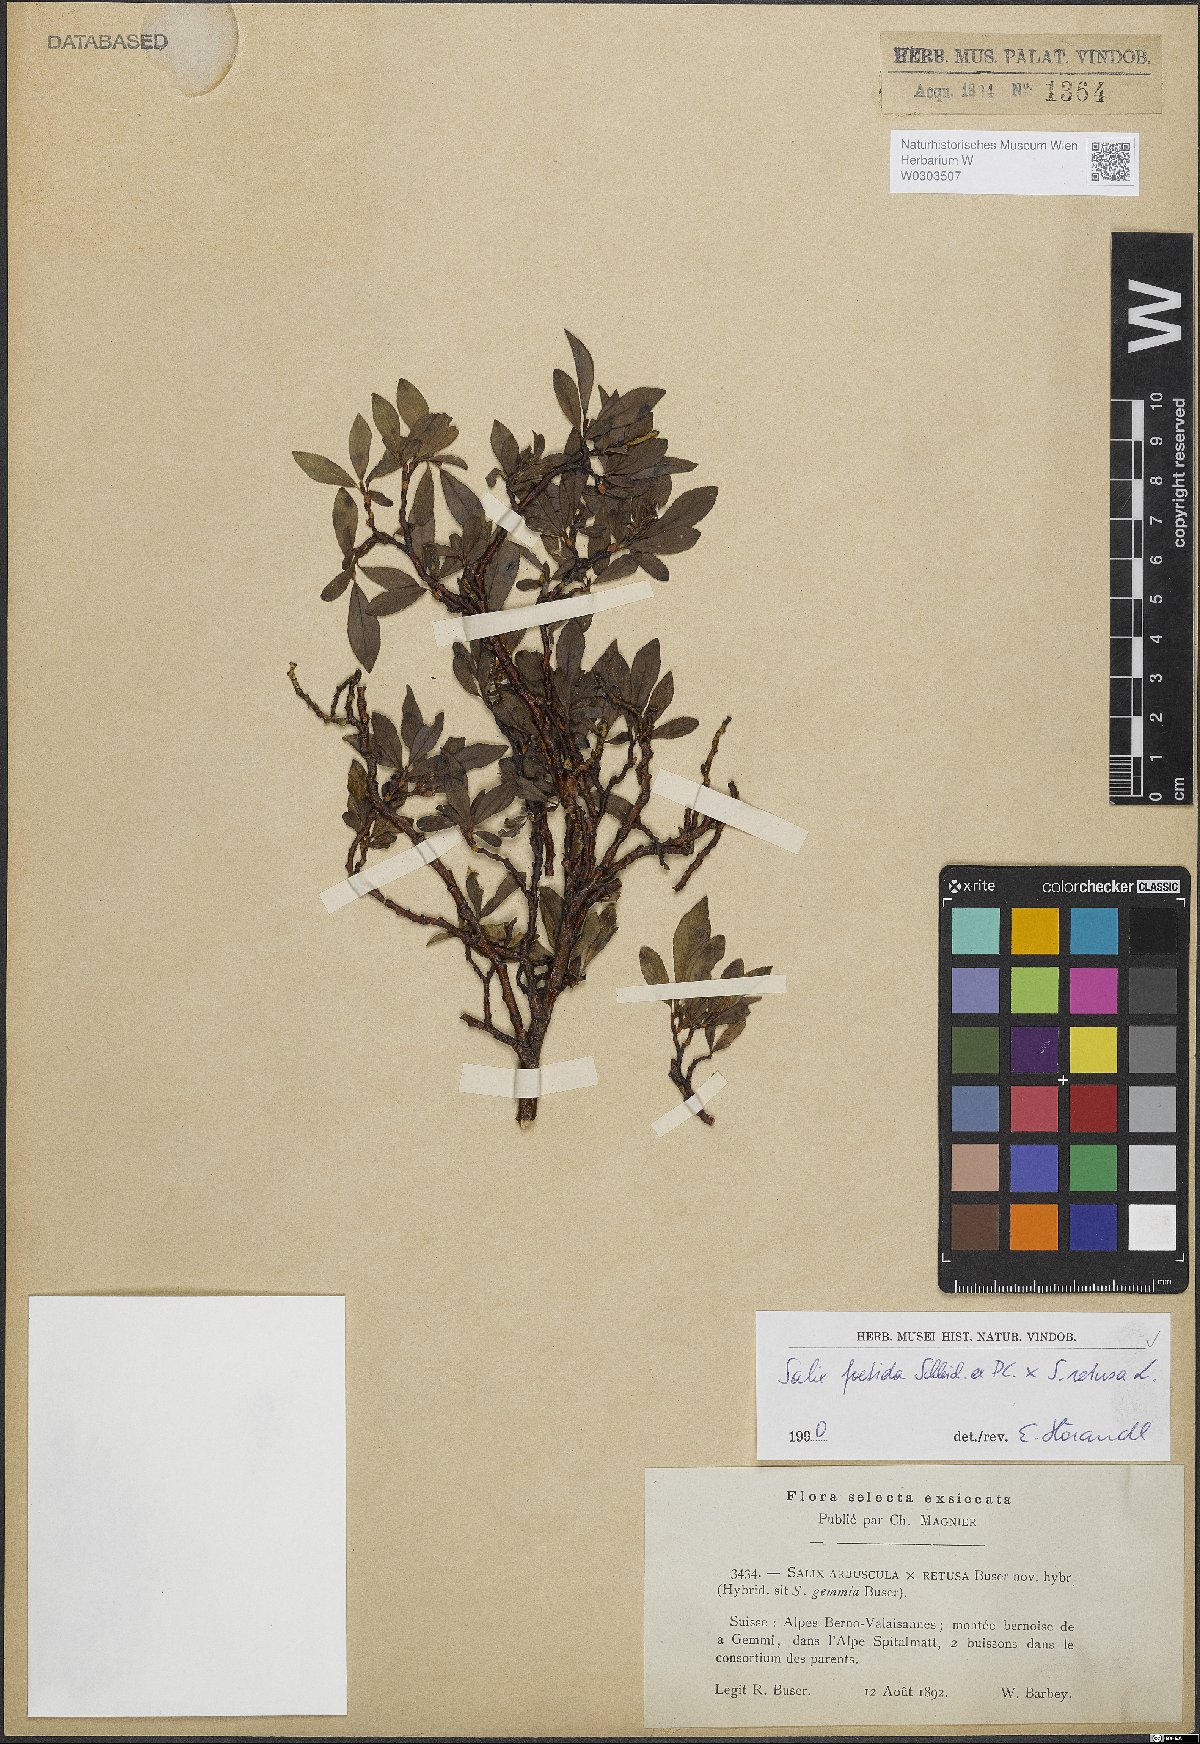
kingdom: Plantae
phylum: Tracheophyta
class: Magnoliopsida
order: Malpighiales
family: Salicaceae
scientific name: Salicaceae
